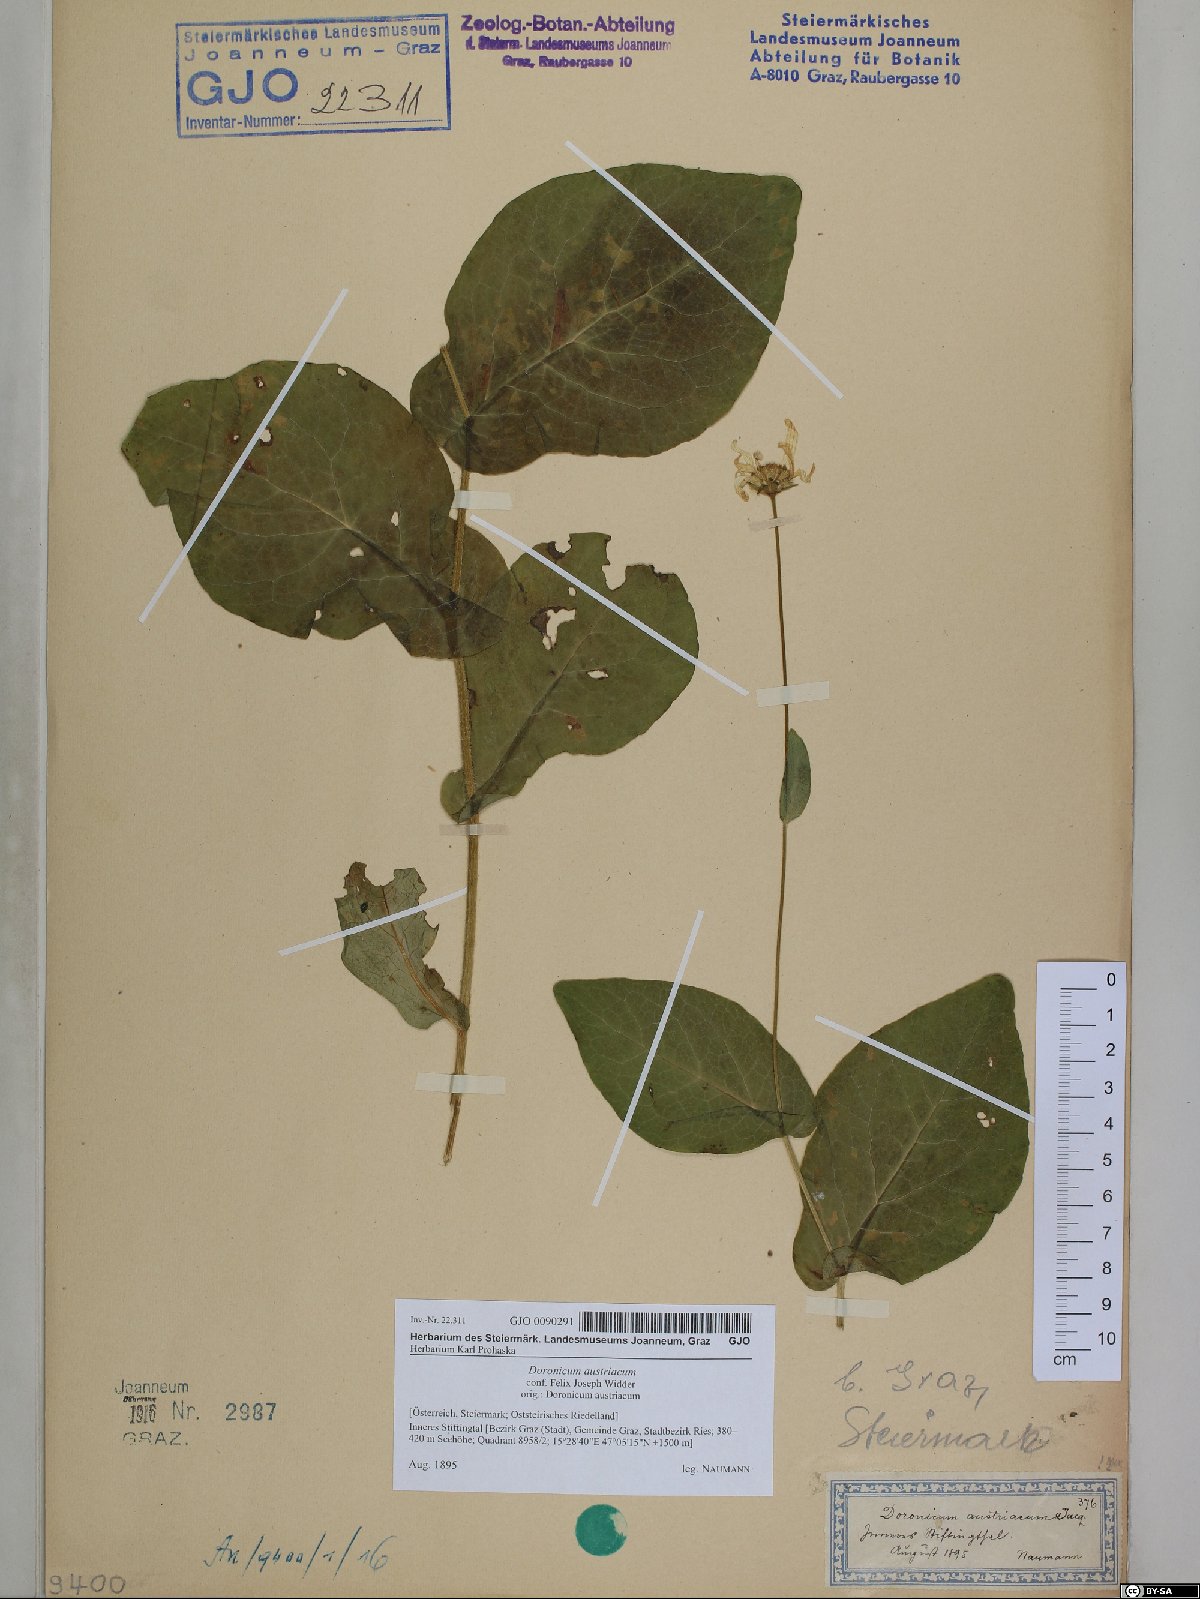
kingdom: Plantae
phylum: Tracheophyta
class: Magnoliopsida
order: Asterales
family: Asteraceae
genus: Doronicum
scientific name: Doronicum austriacum
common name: Austrian leopard's-bane
